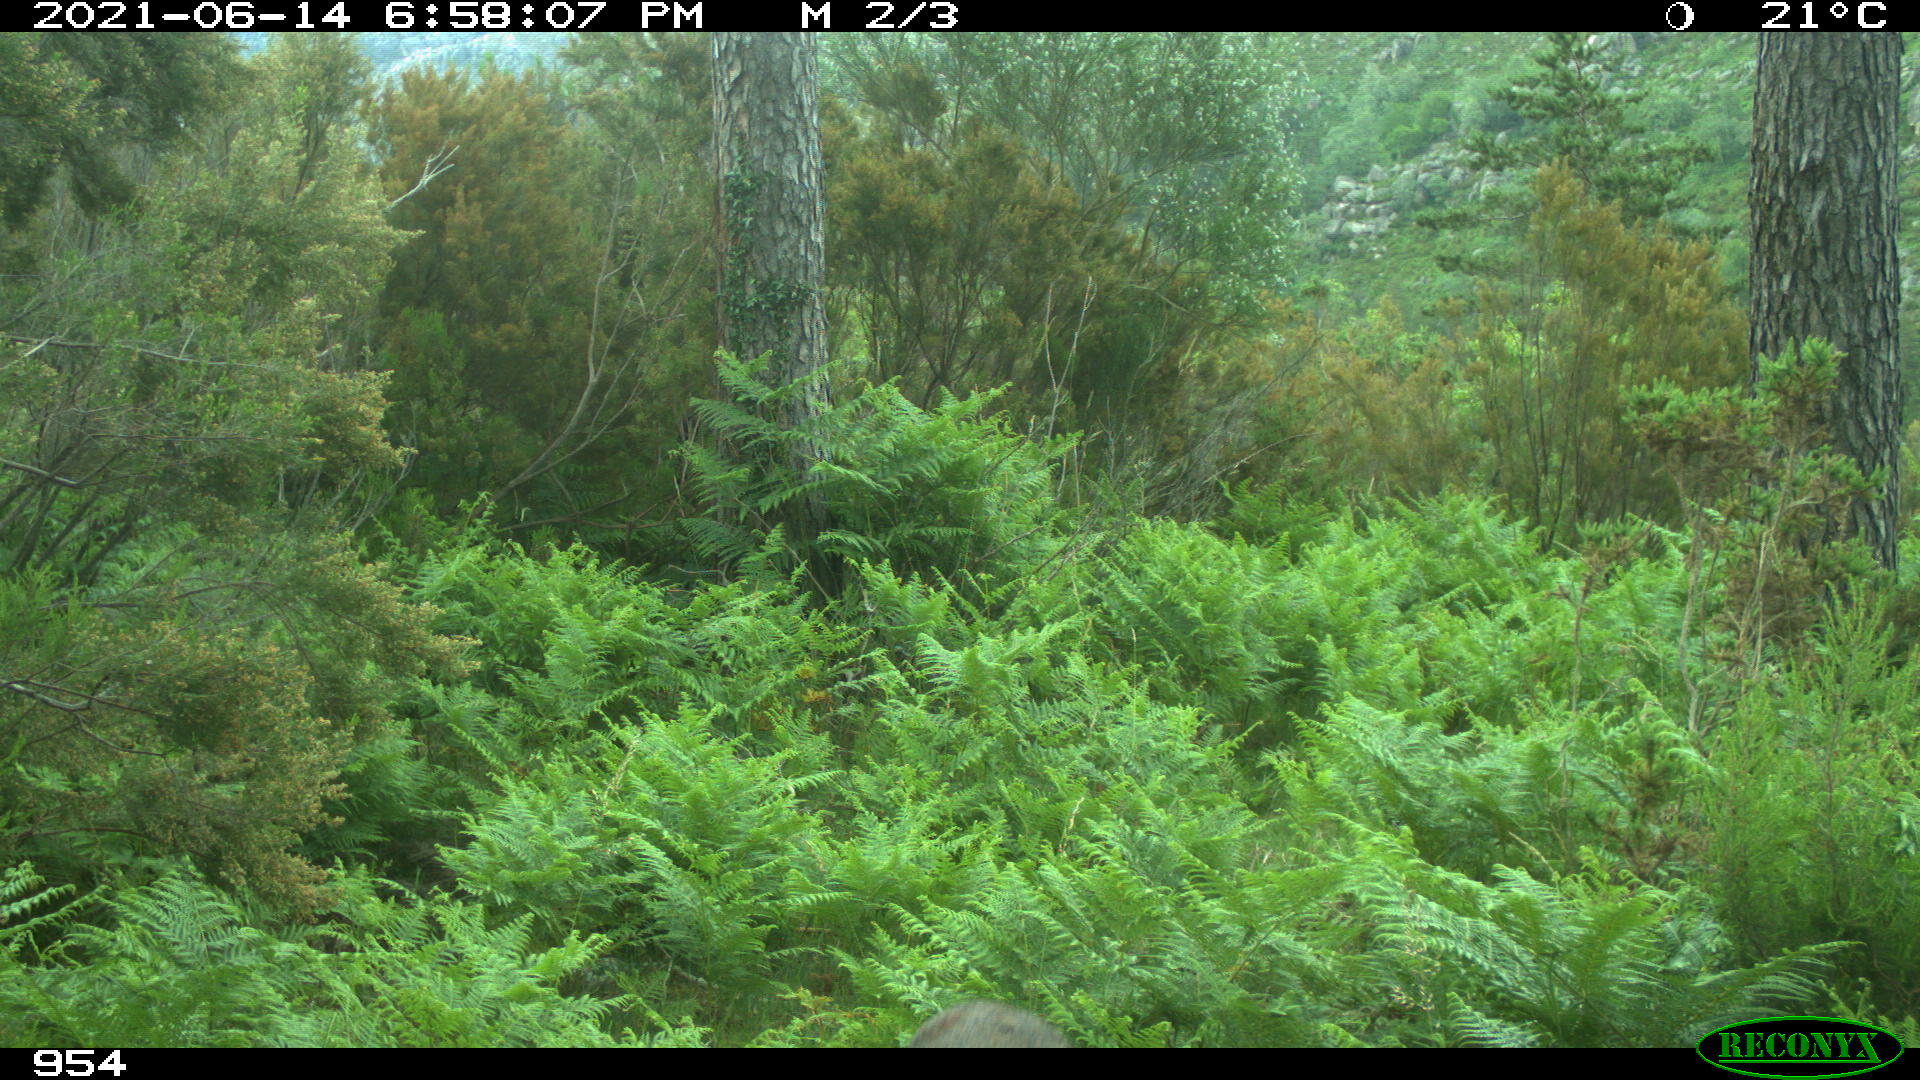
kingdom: Animalia
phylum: Chordata
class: Mammalia
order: Artiodactyla
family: Cervidae
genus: Capreolus
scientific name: Capreolus capreolus
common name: Western roe deer
